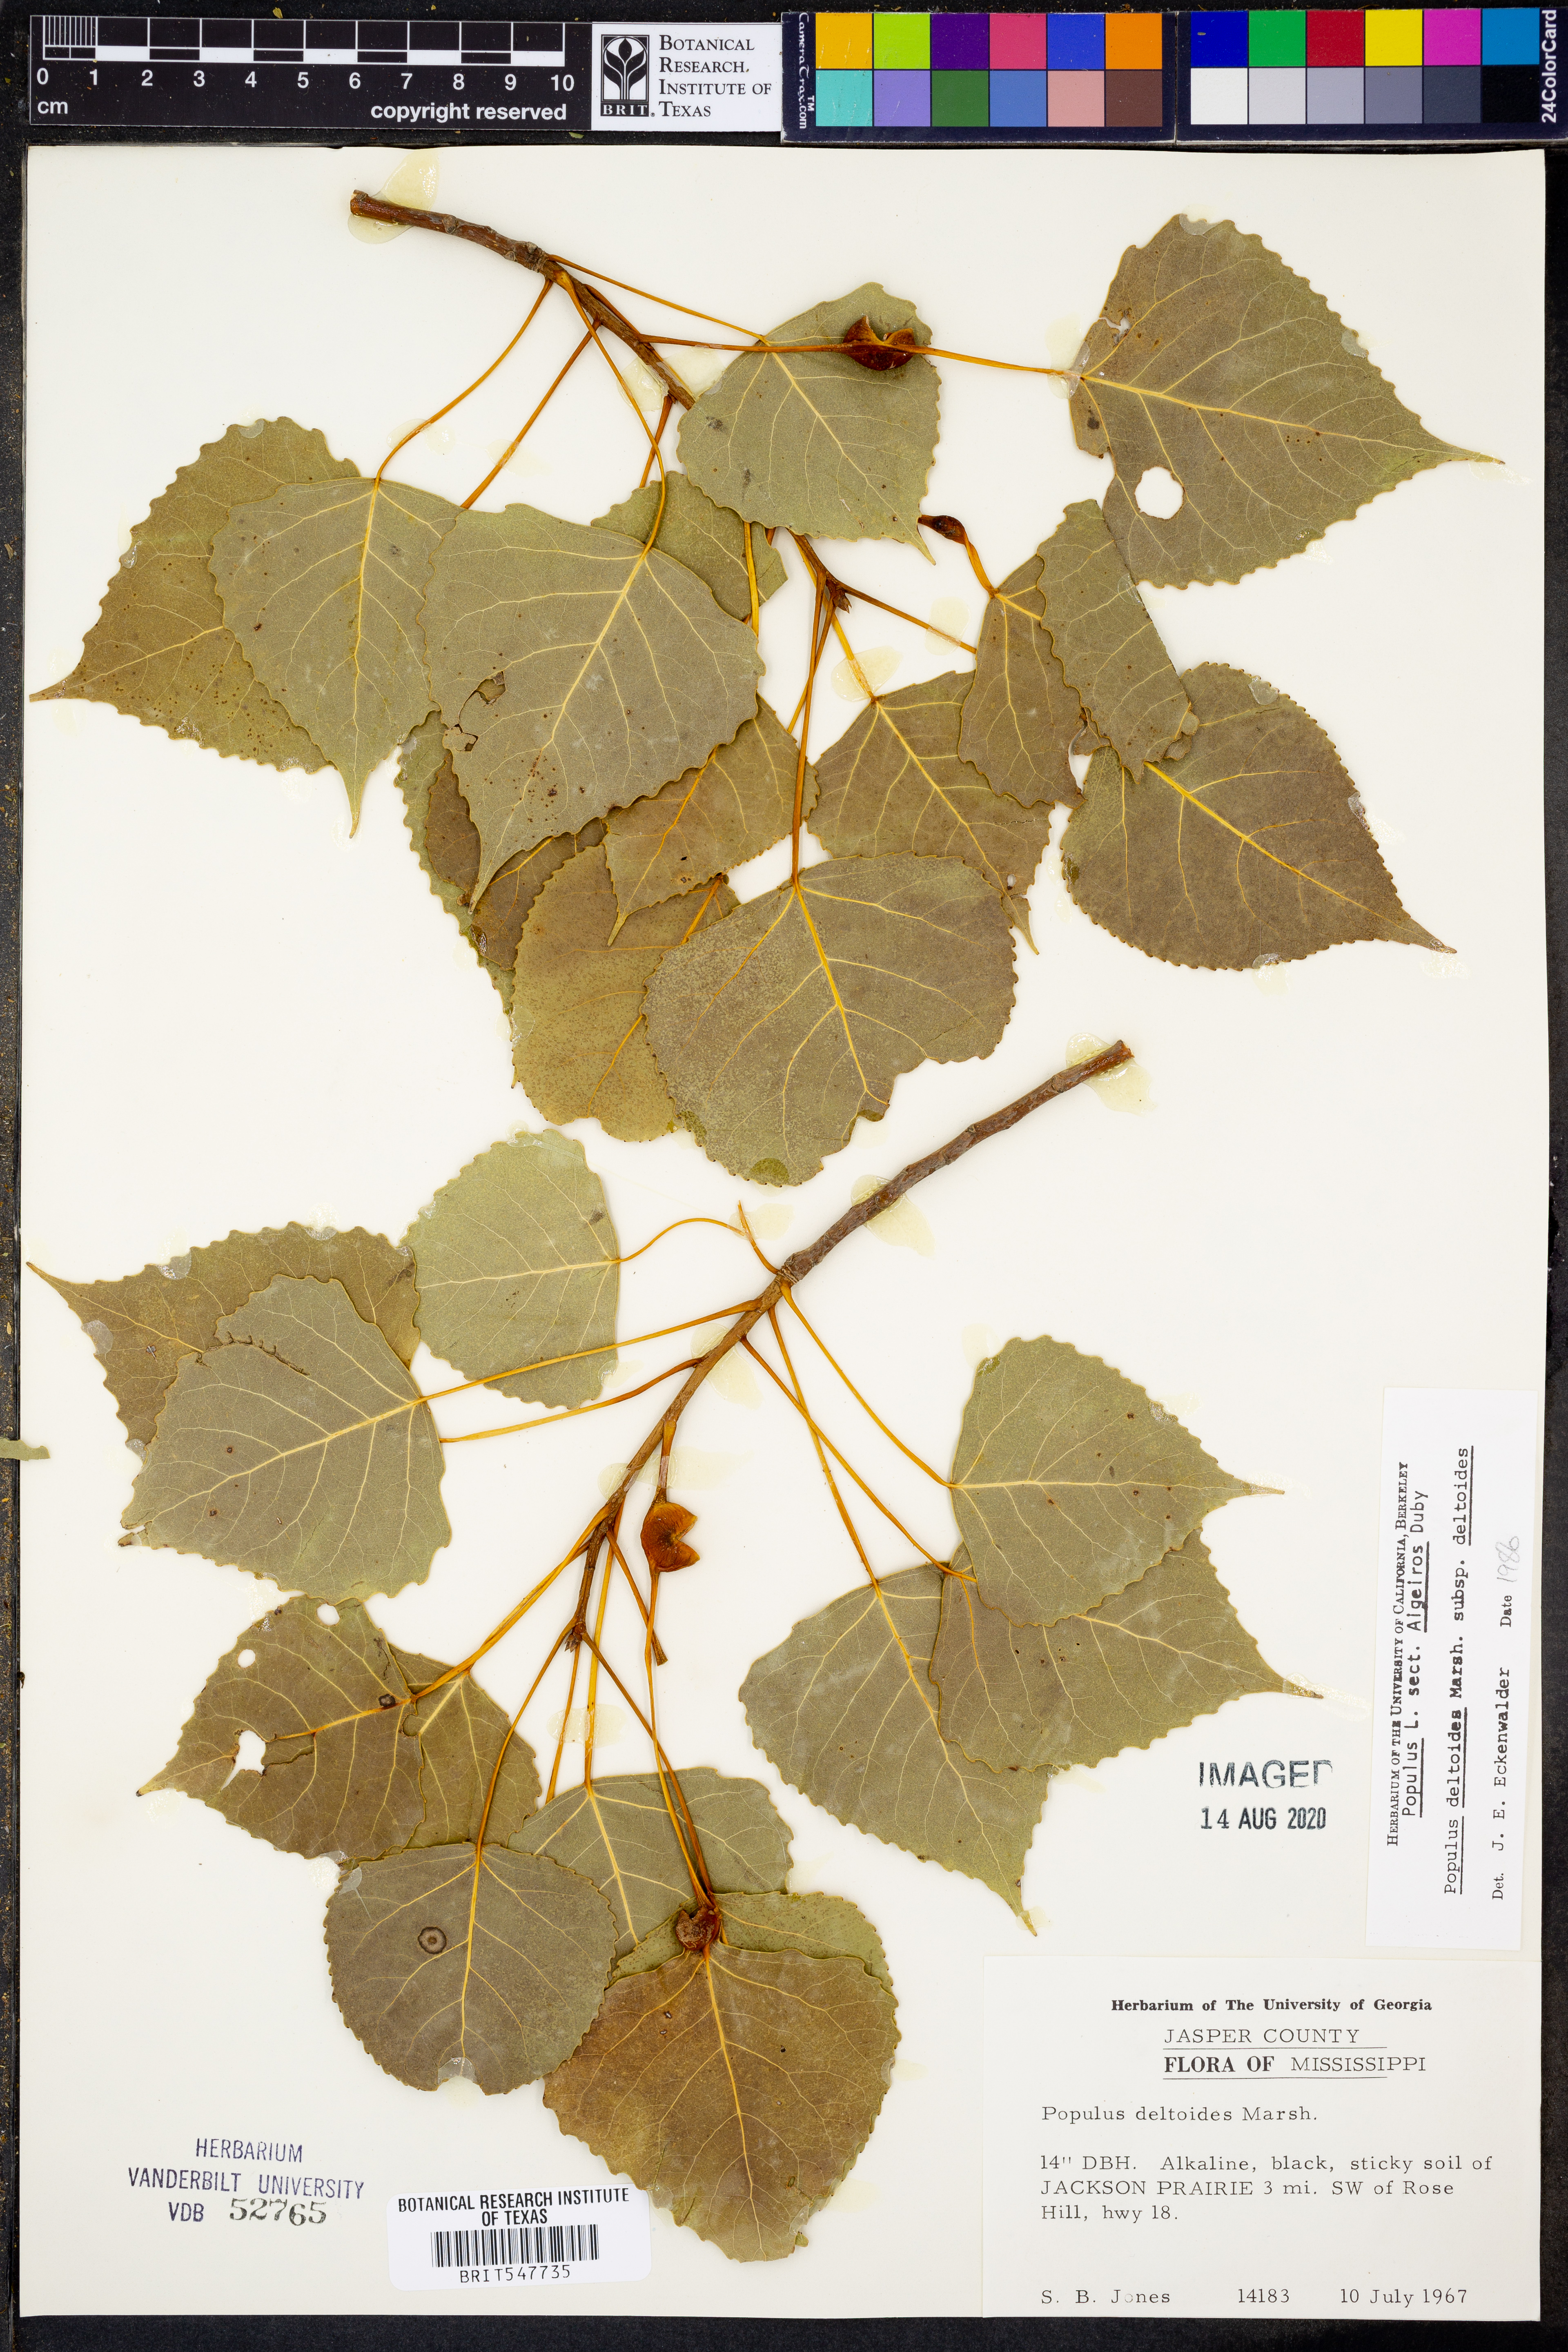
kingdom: Plantae
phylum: Tracheophyta
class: Magnoliopsida
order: Malpighiales
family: Salicaceae
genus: Populus
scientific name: Populus deltoides
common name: Eastern cottonwood
